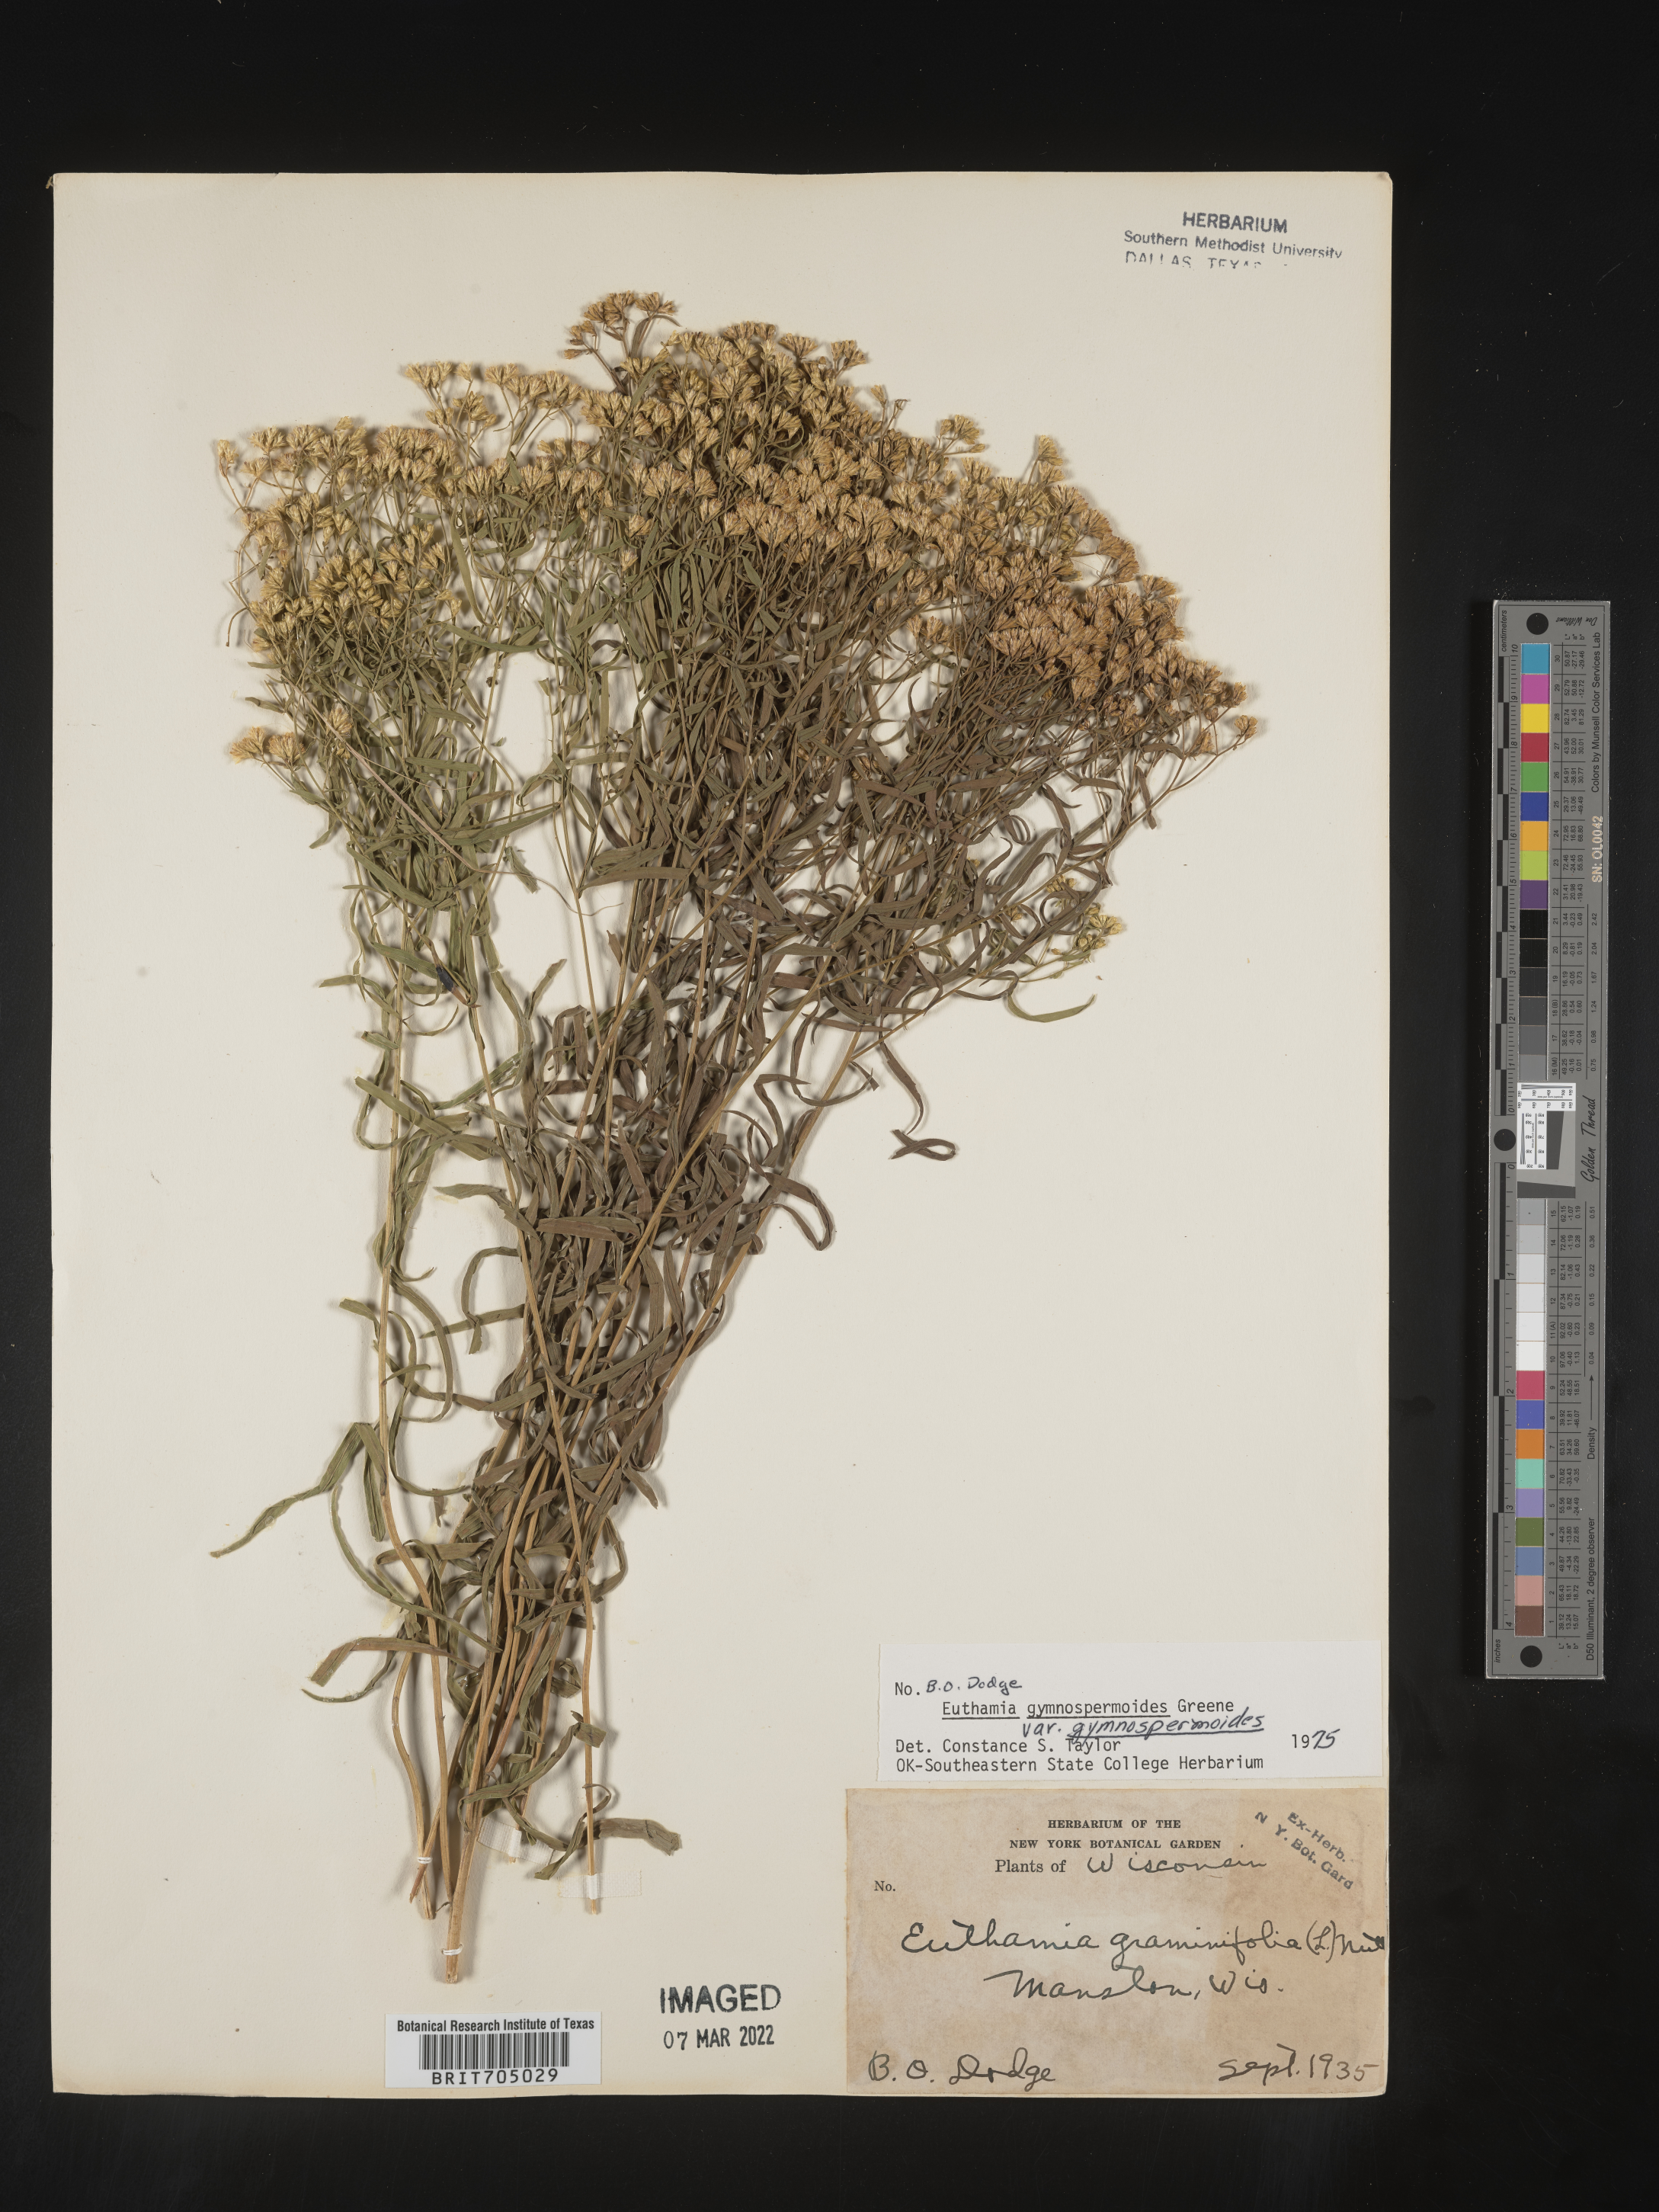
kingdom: Plantae
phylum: Tracheophyta
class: Magnoliopsida
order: Asterales
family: Asteraceae
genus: Euthamia
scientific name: Euthamia gymnospermoides
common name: Great plains goldentop
